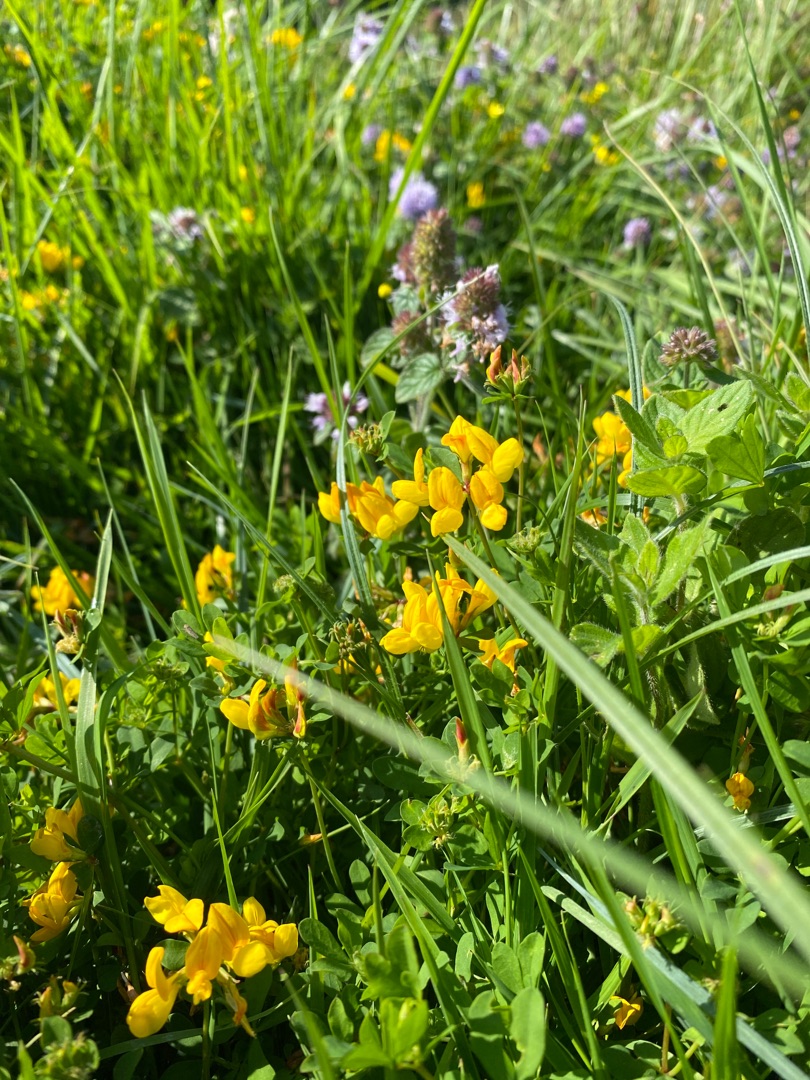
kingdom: Plantae
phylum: Tracheophyta
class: Magnoliopsida
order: Fabales
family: Fabaceae
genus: Lotus
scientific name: Lotus corniculatus
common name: Almindelig kællingetand
